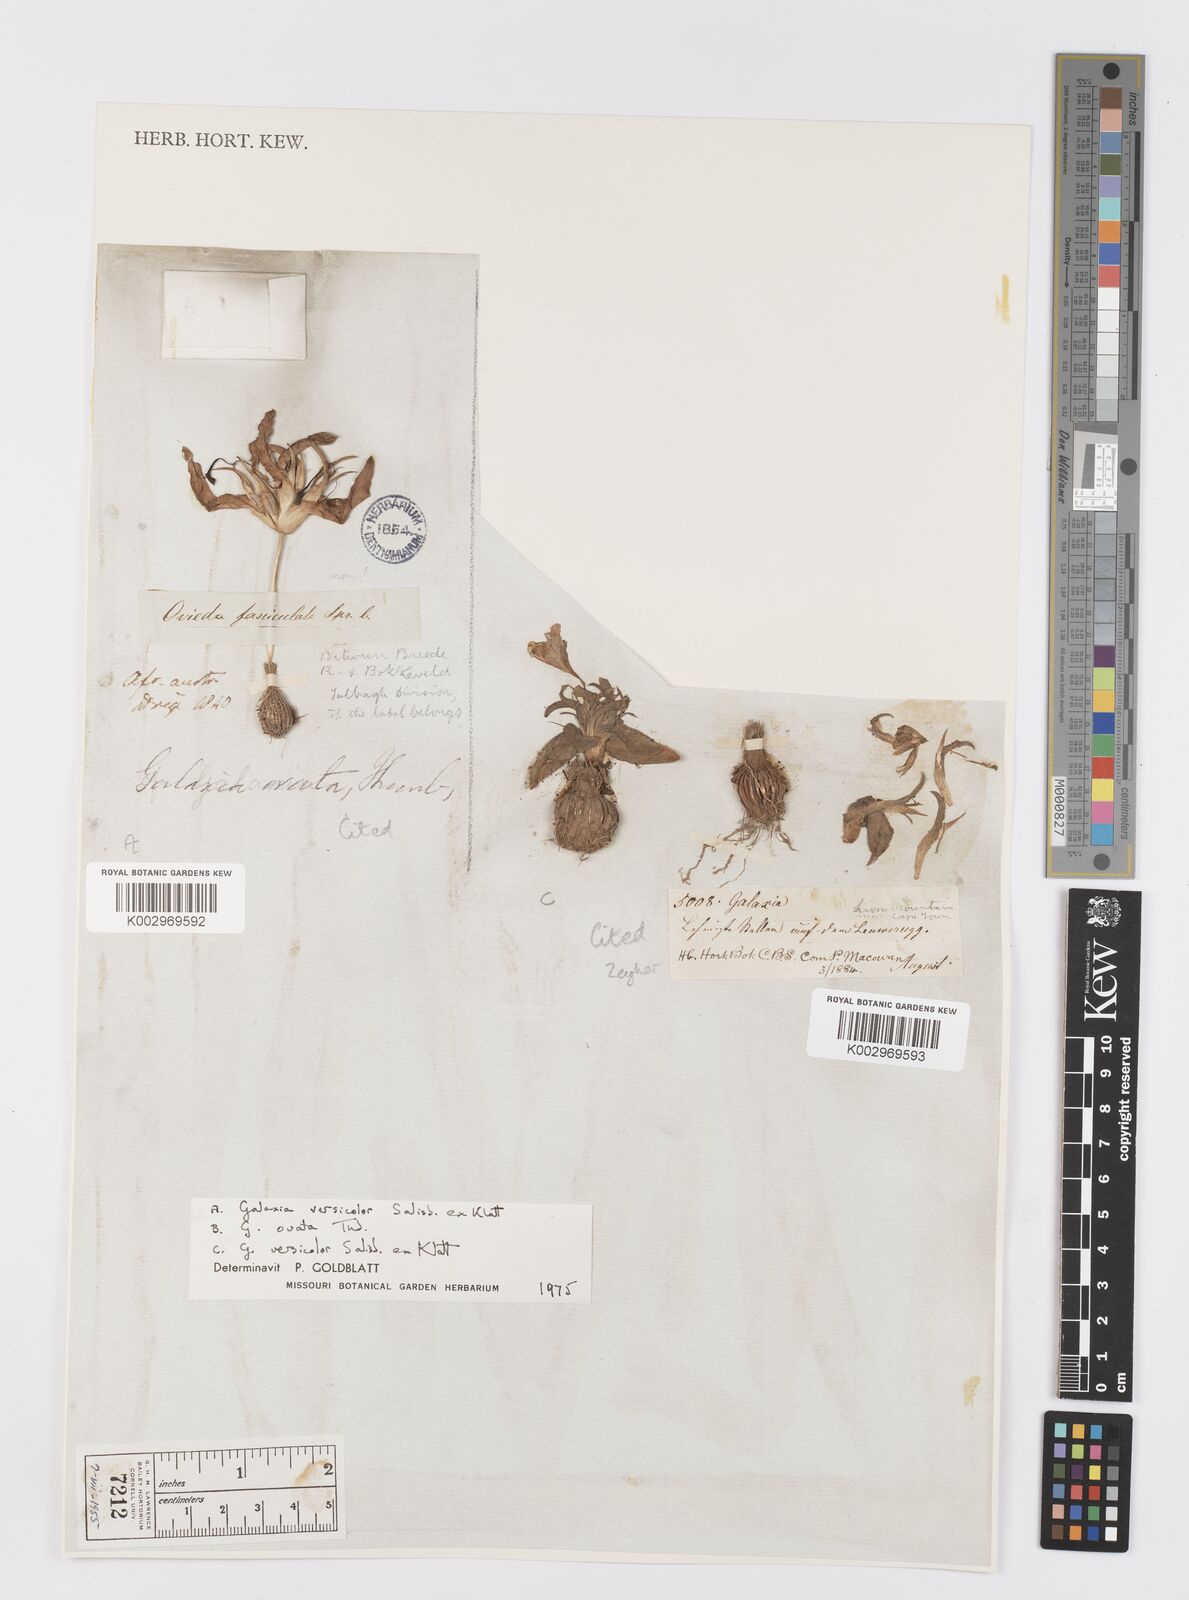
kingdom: Plantae
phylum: Tracheophyta
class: Liliopsida
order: Asparagales
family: Iridaceae
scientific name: Iridaceae
